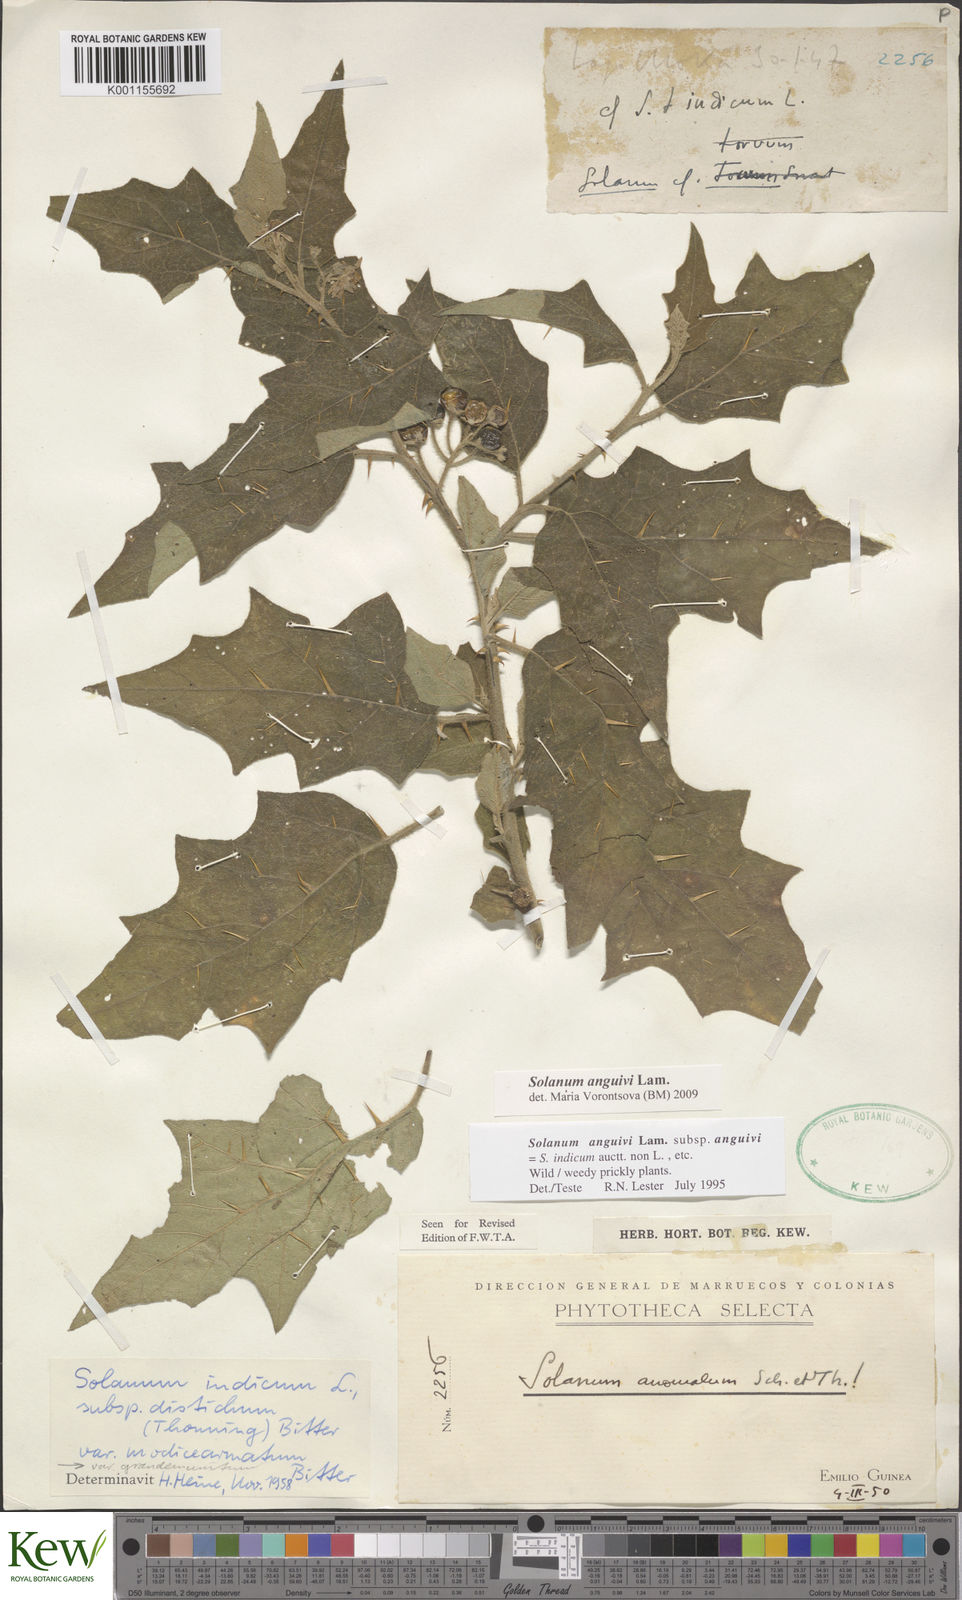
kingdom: Plantae
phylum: Tracheophyta
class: Magnoliopsida
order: Solanales
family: Solanaceae
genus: Solanum
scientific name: Solanum anguivi
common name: Forest bitterberry
